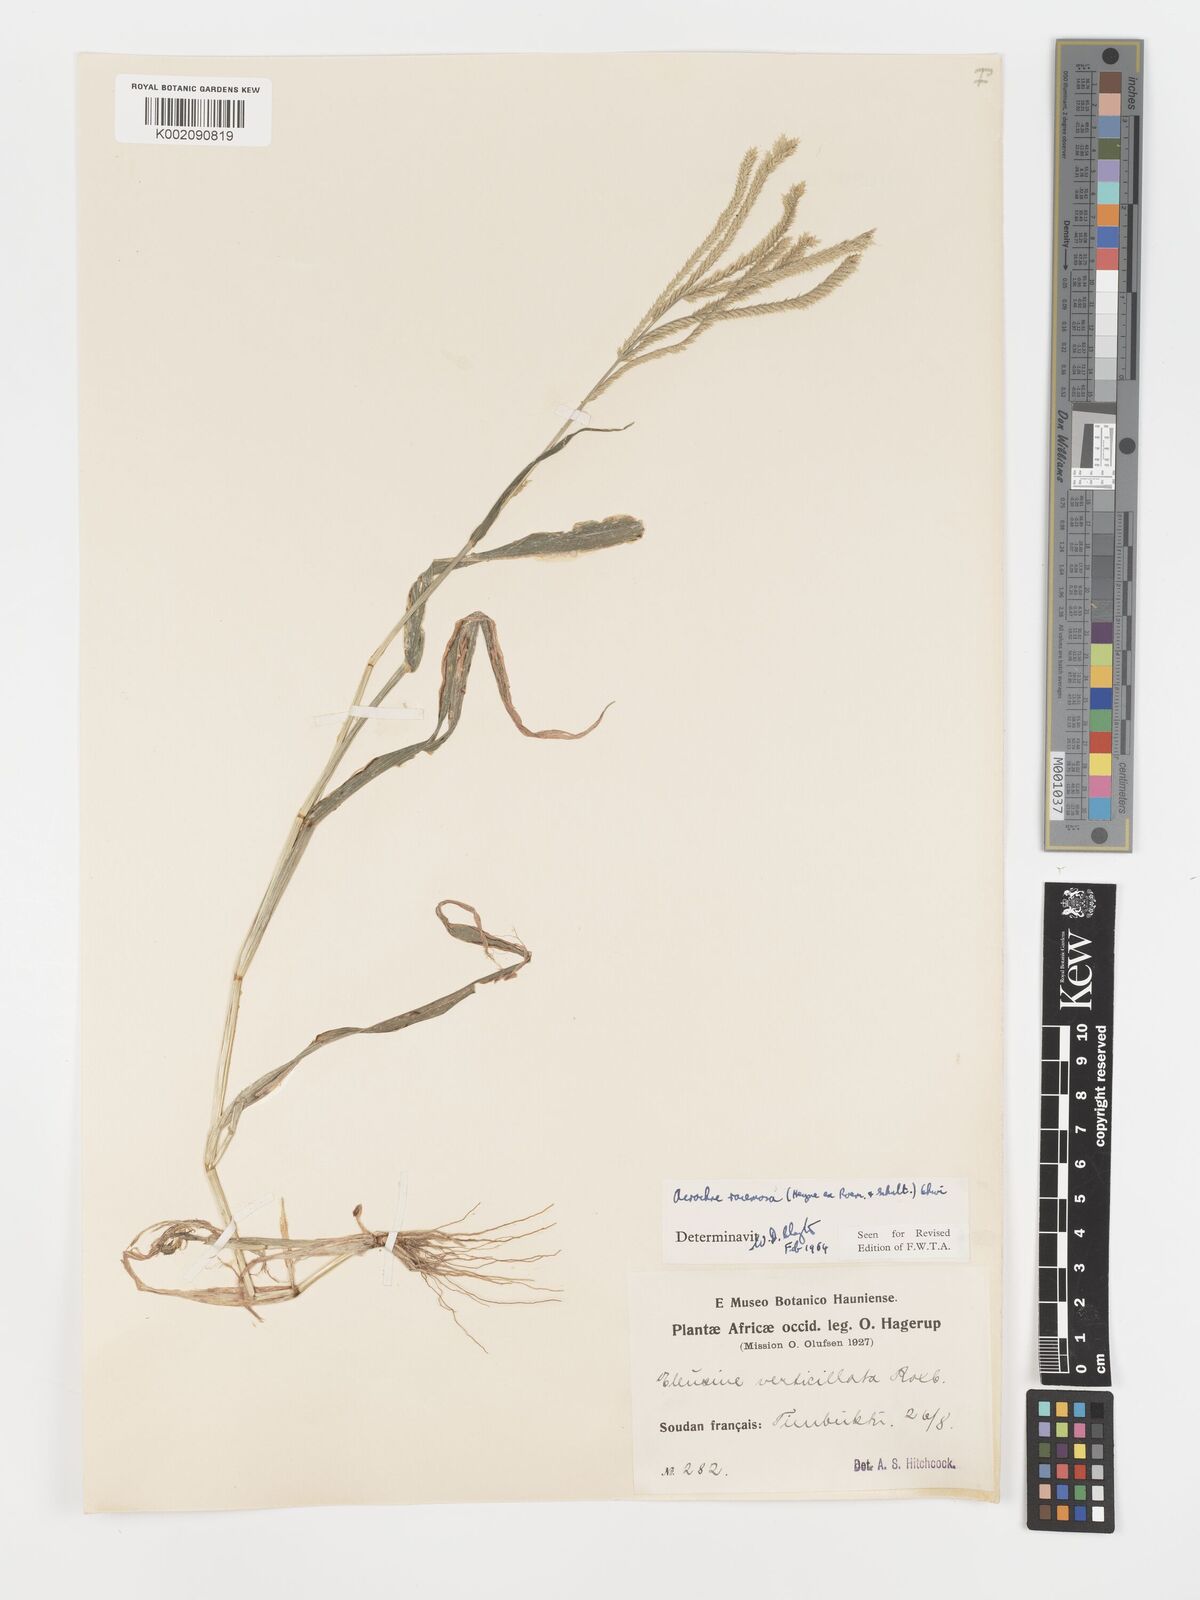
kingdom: Plantae
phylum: Tracheophyta
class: Liliopsida
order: Poales
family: Poaceae
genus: Acrachne
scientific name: Acrachne racemosa
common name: Goosegrass
